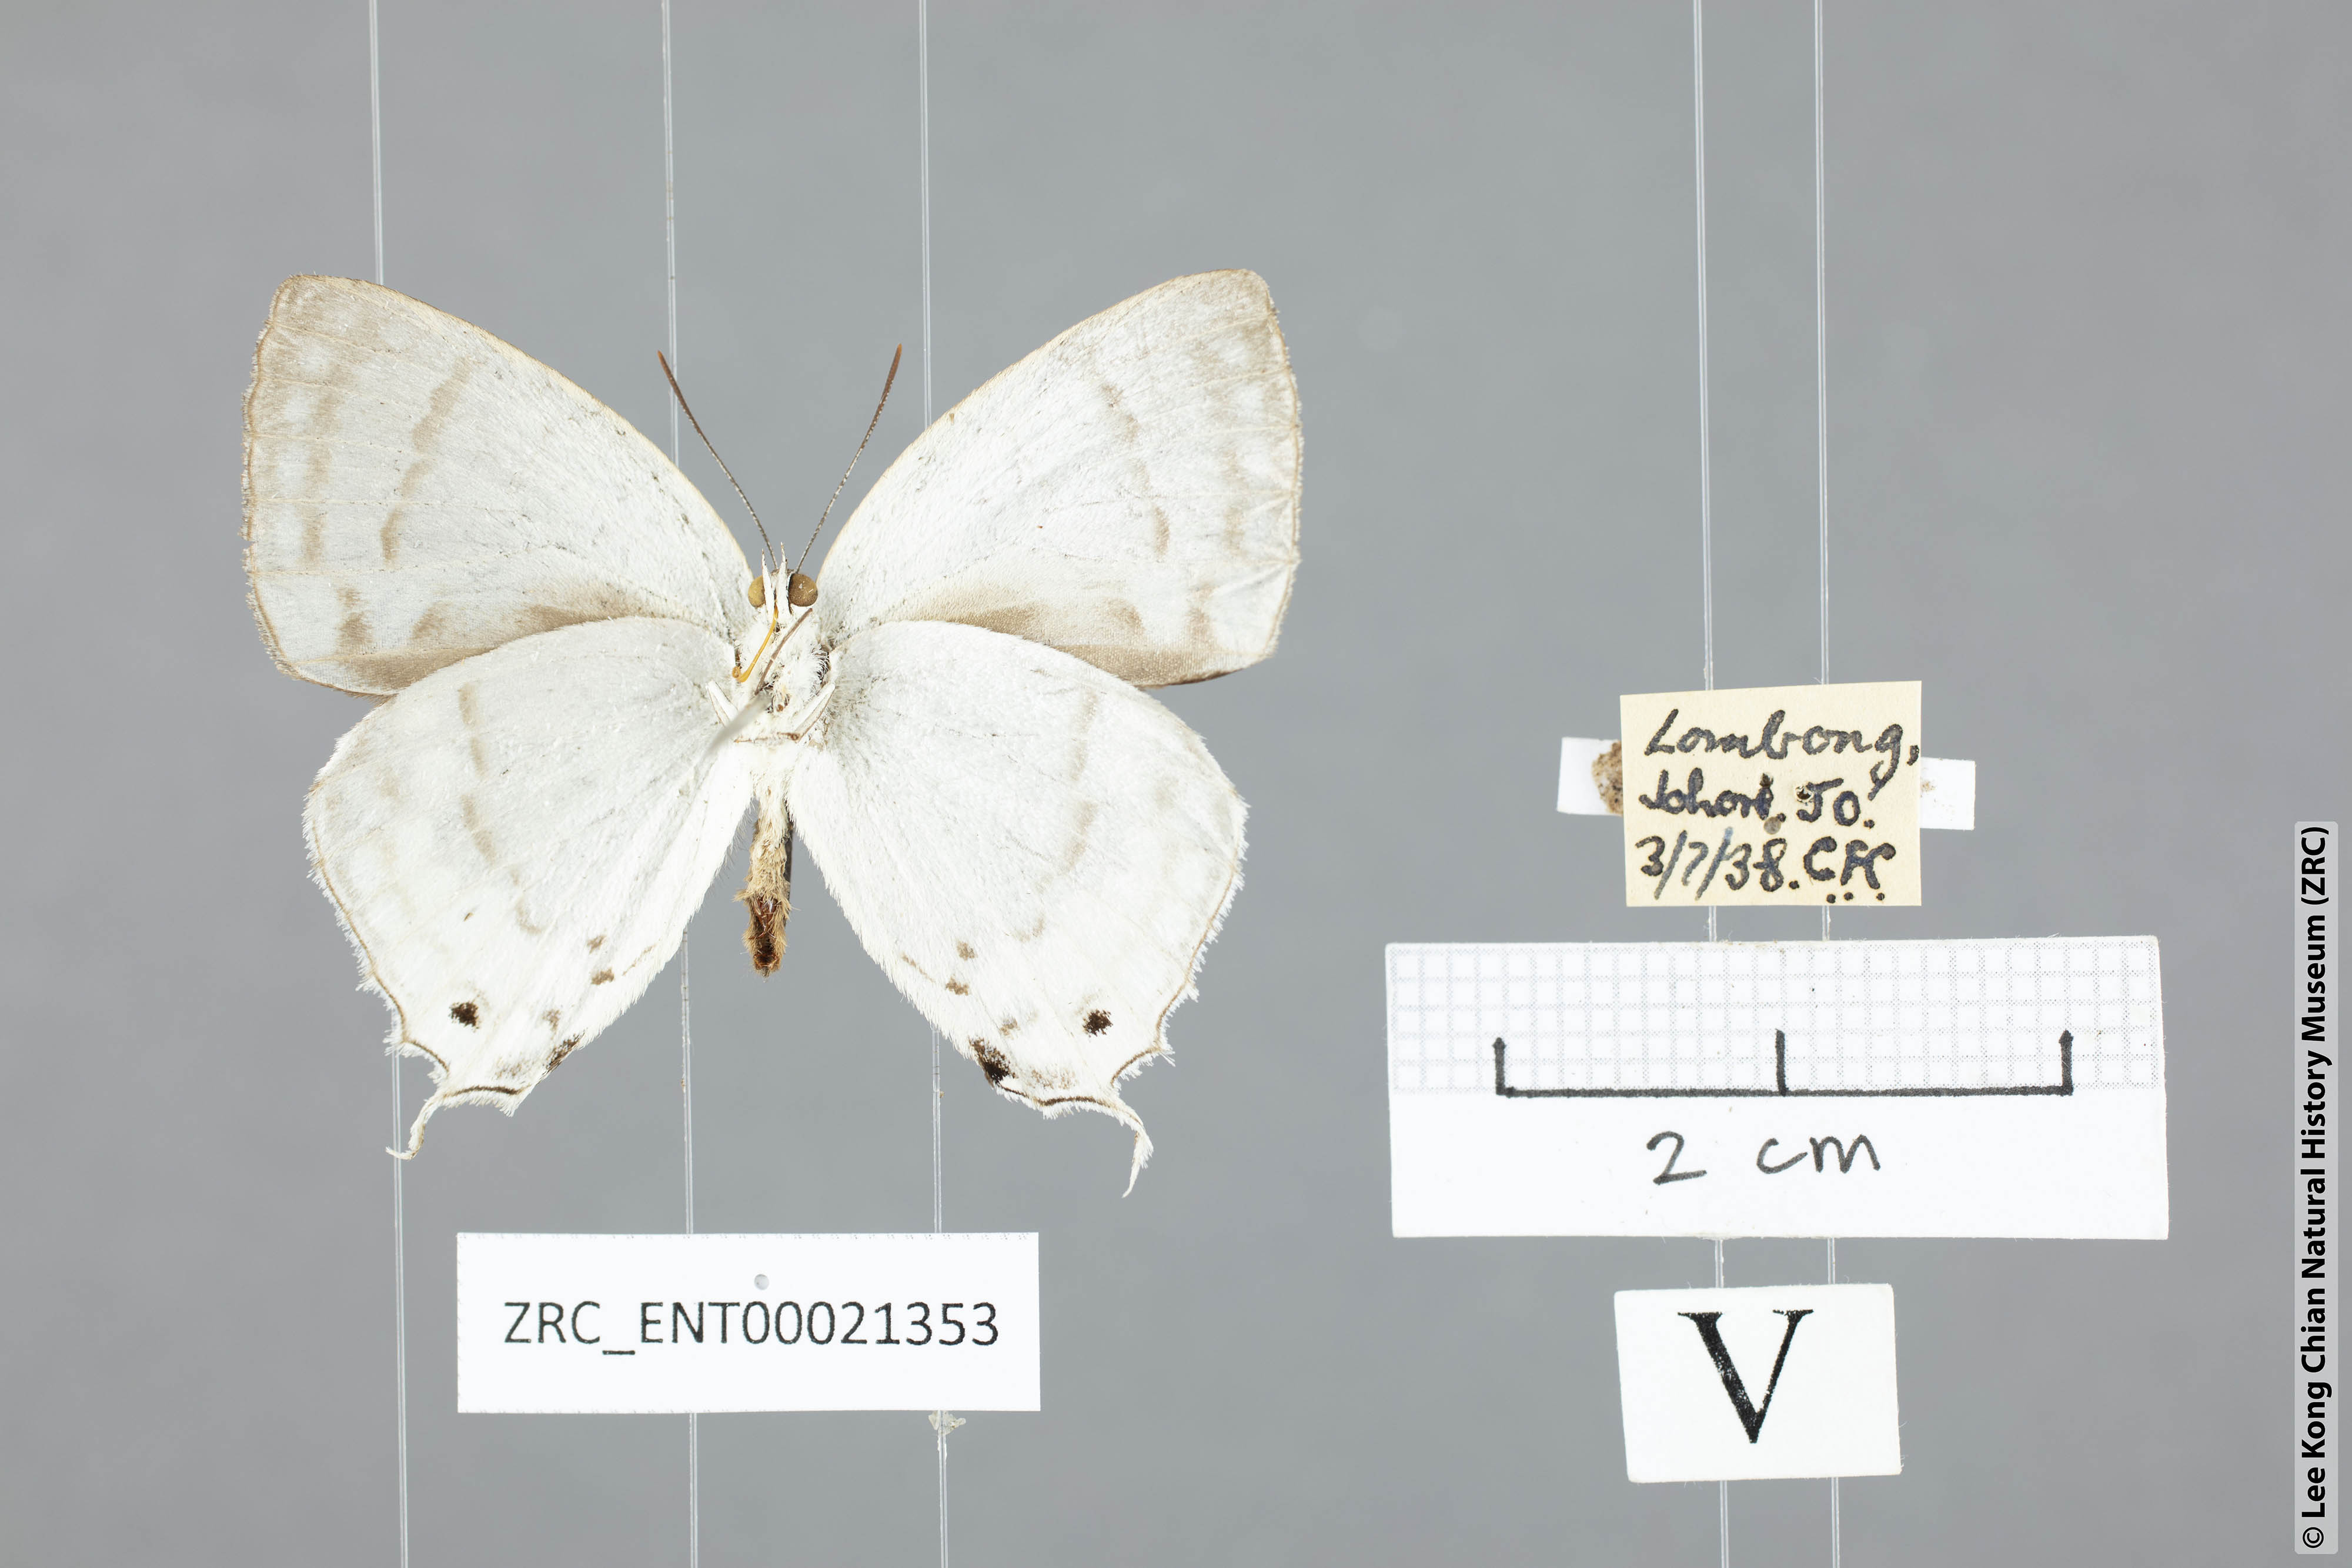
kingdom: Animalia
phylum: Arthropoda
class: Insecta
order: Lepidoptera
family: Lycaenidae
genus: Drina
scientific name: Drina cowani
